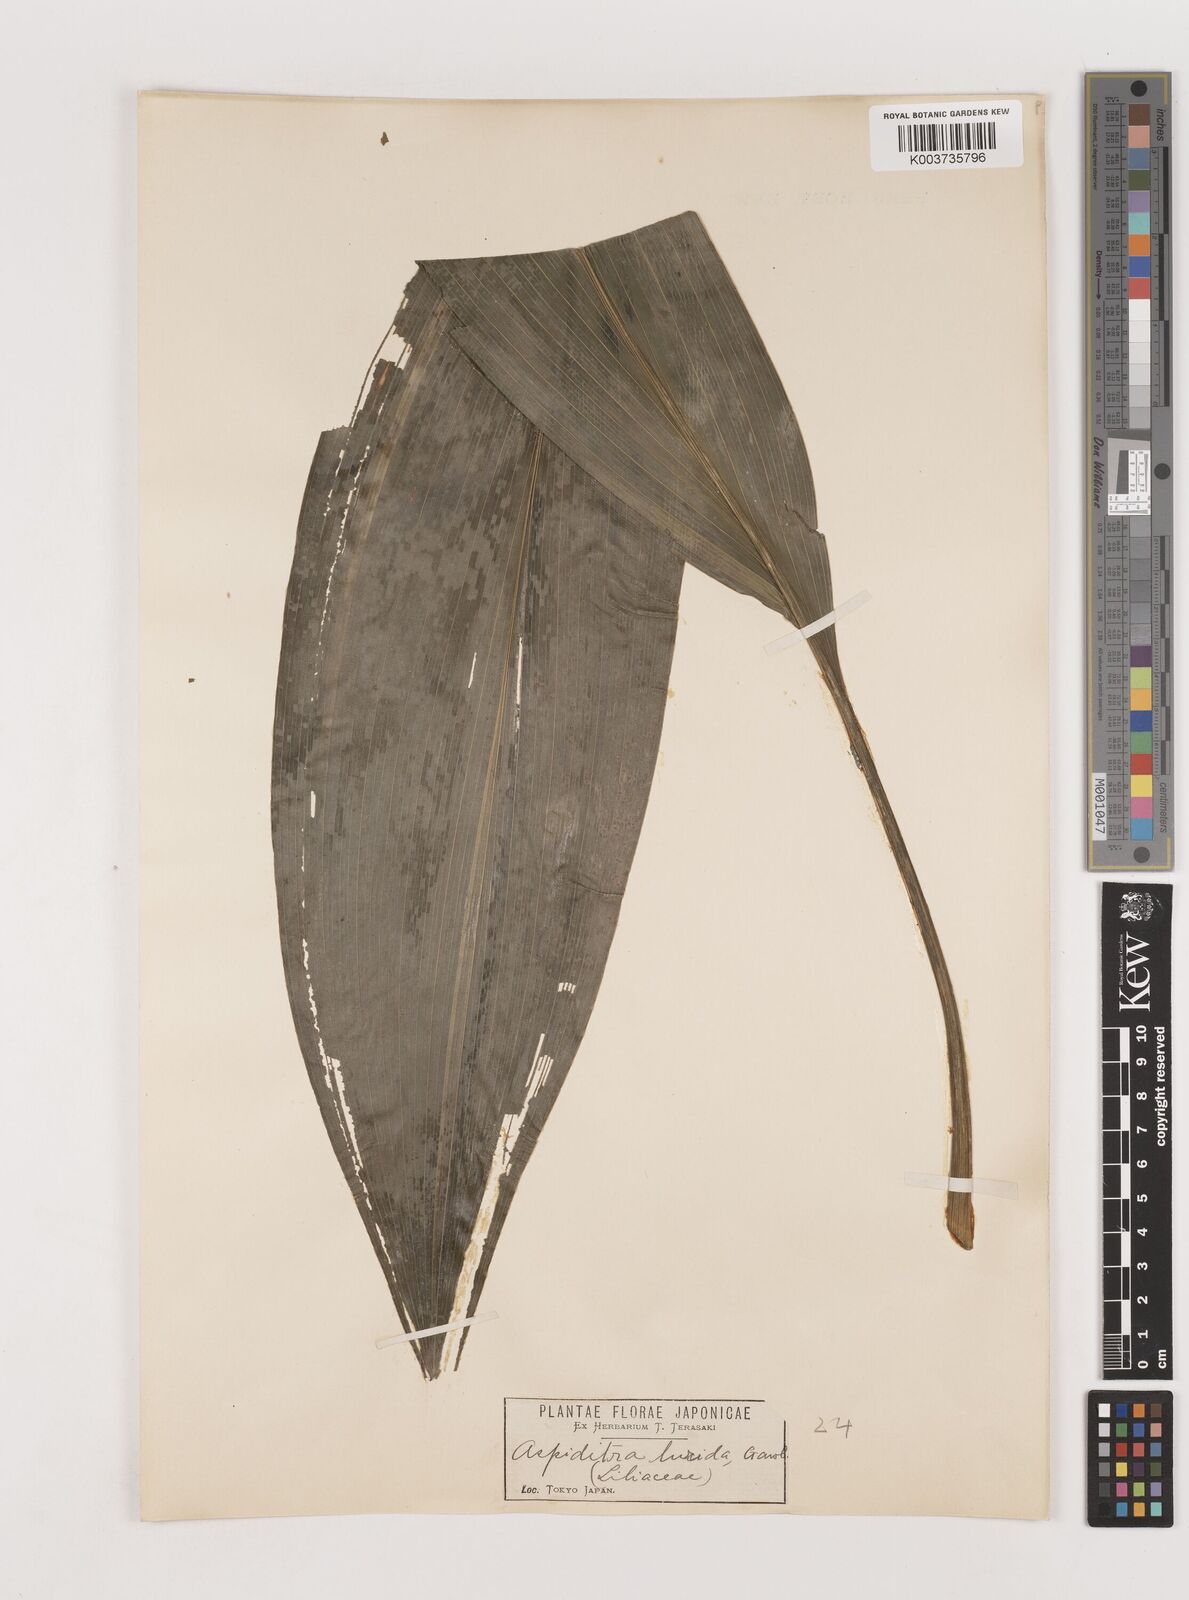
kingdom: Plantae
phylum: Tracheophyta
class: Liliopsida
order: Asparagales
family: Asparagaceae
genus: Aspidistra
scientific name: Aspidistra elatior
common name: Cast-iron-plant
